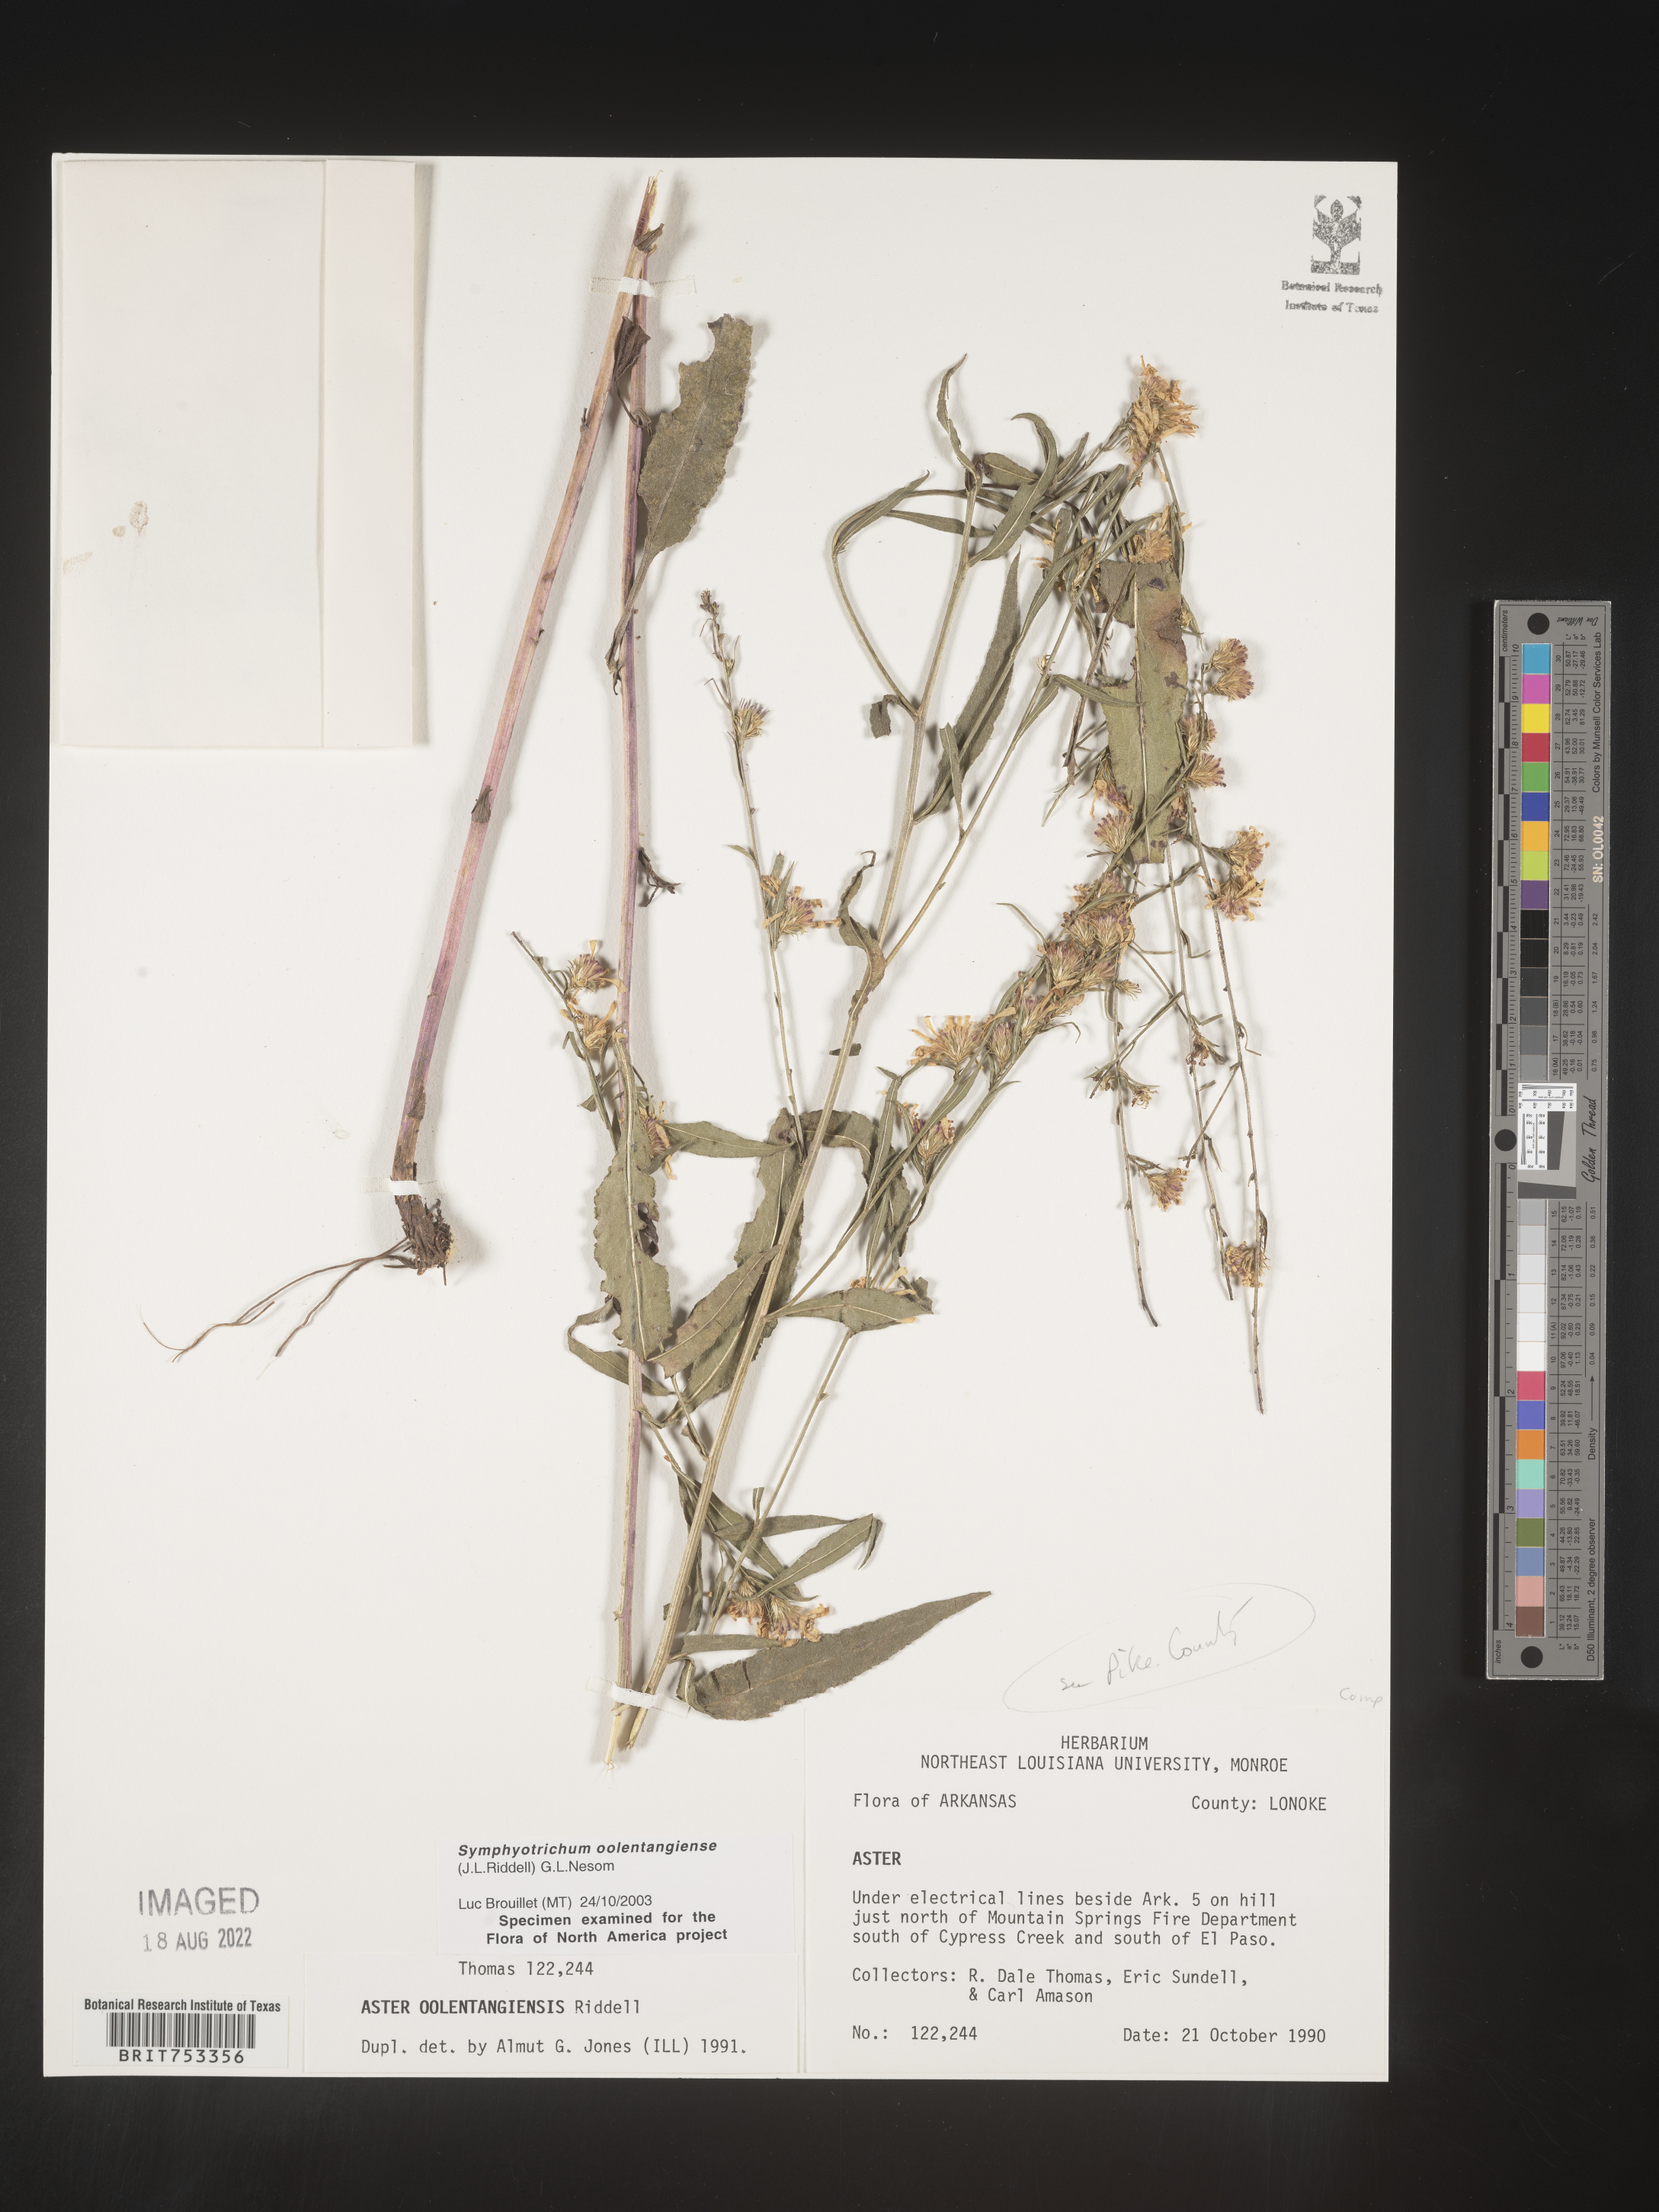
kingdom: Plantae
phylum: Tracheophyta
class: Magnoliopsida
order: Asterales
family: Asteraceae
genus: Symphyotrichum
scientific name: Symphyotrichum oolentangiense
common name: Azure aster
